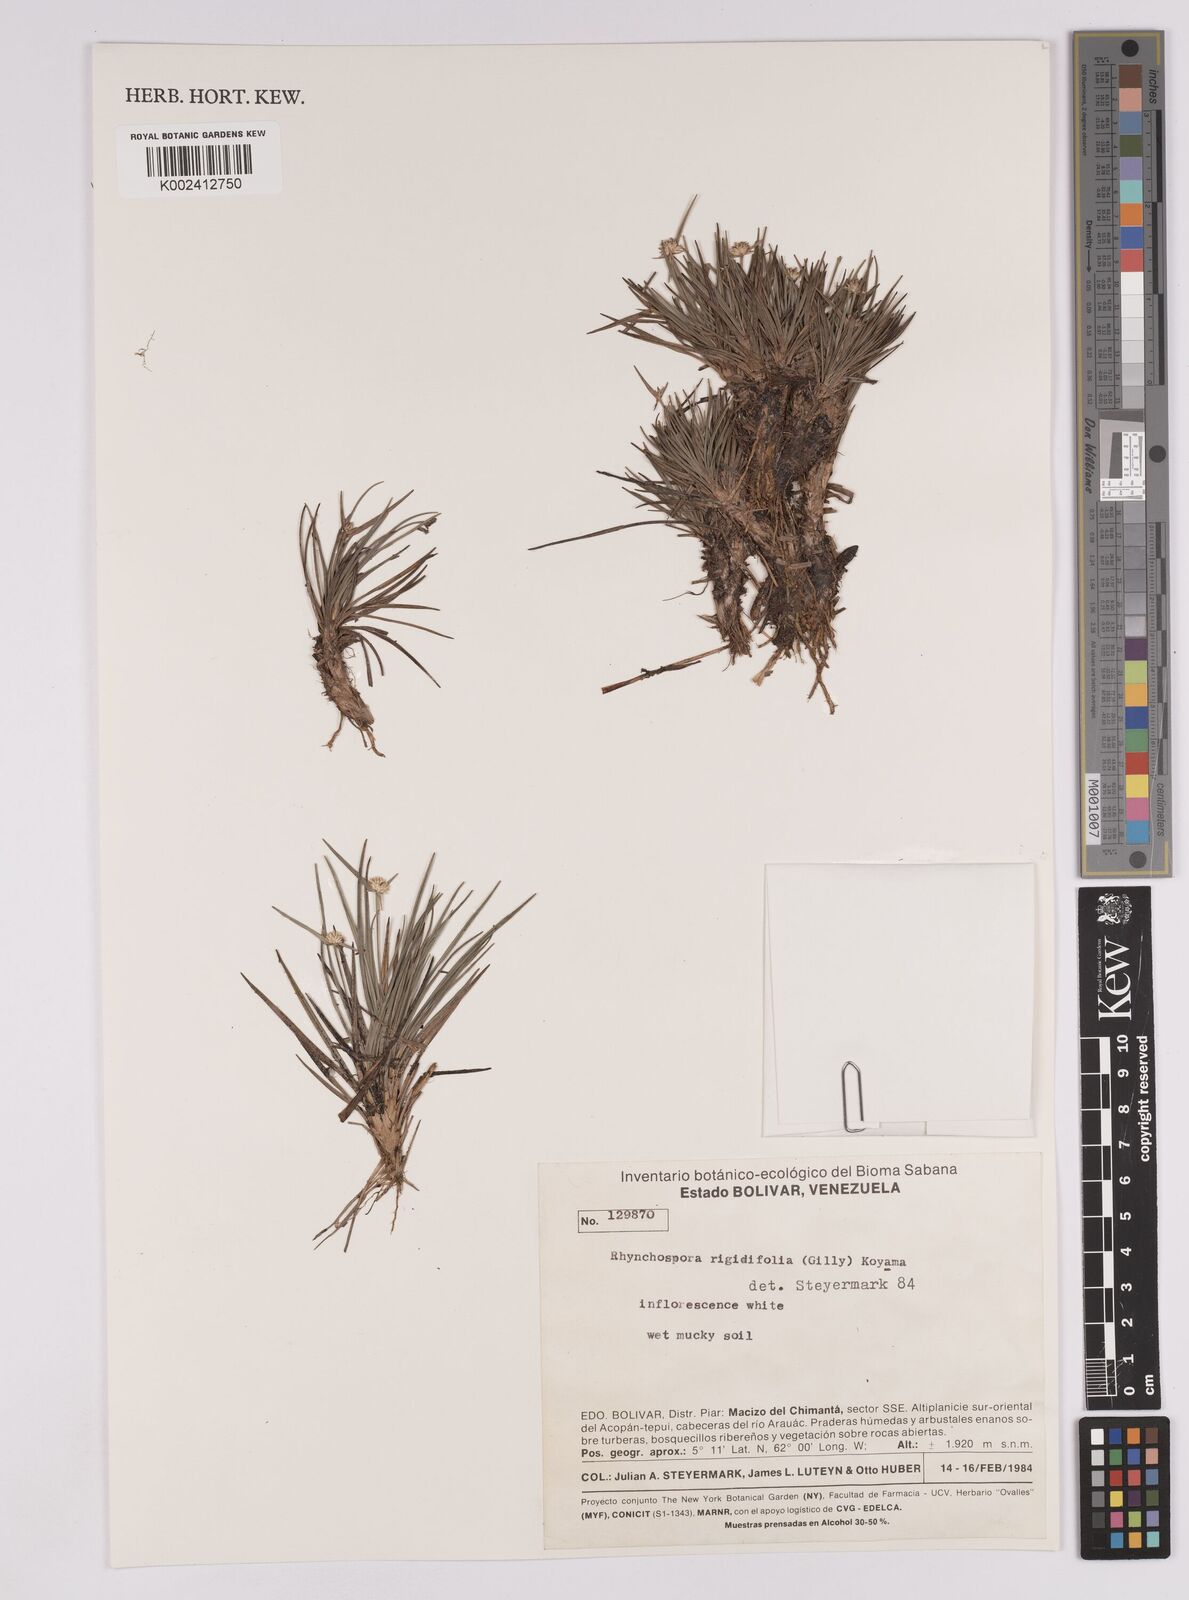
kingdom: Plantae
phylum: Tracheophyta
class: Liliopsida
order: Poales
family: Cyperaceae
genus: Rhynchospora
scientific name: Rhynchospora rigidifolia
